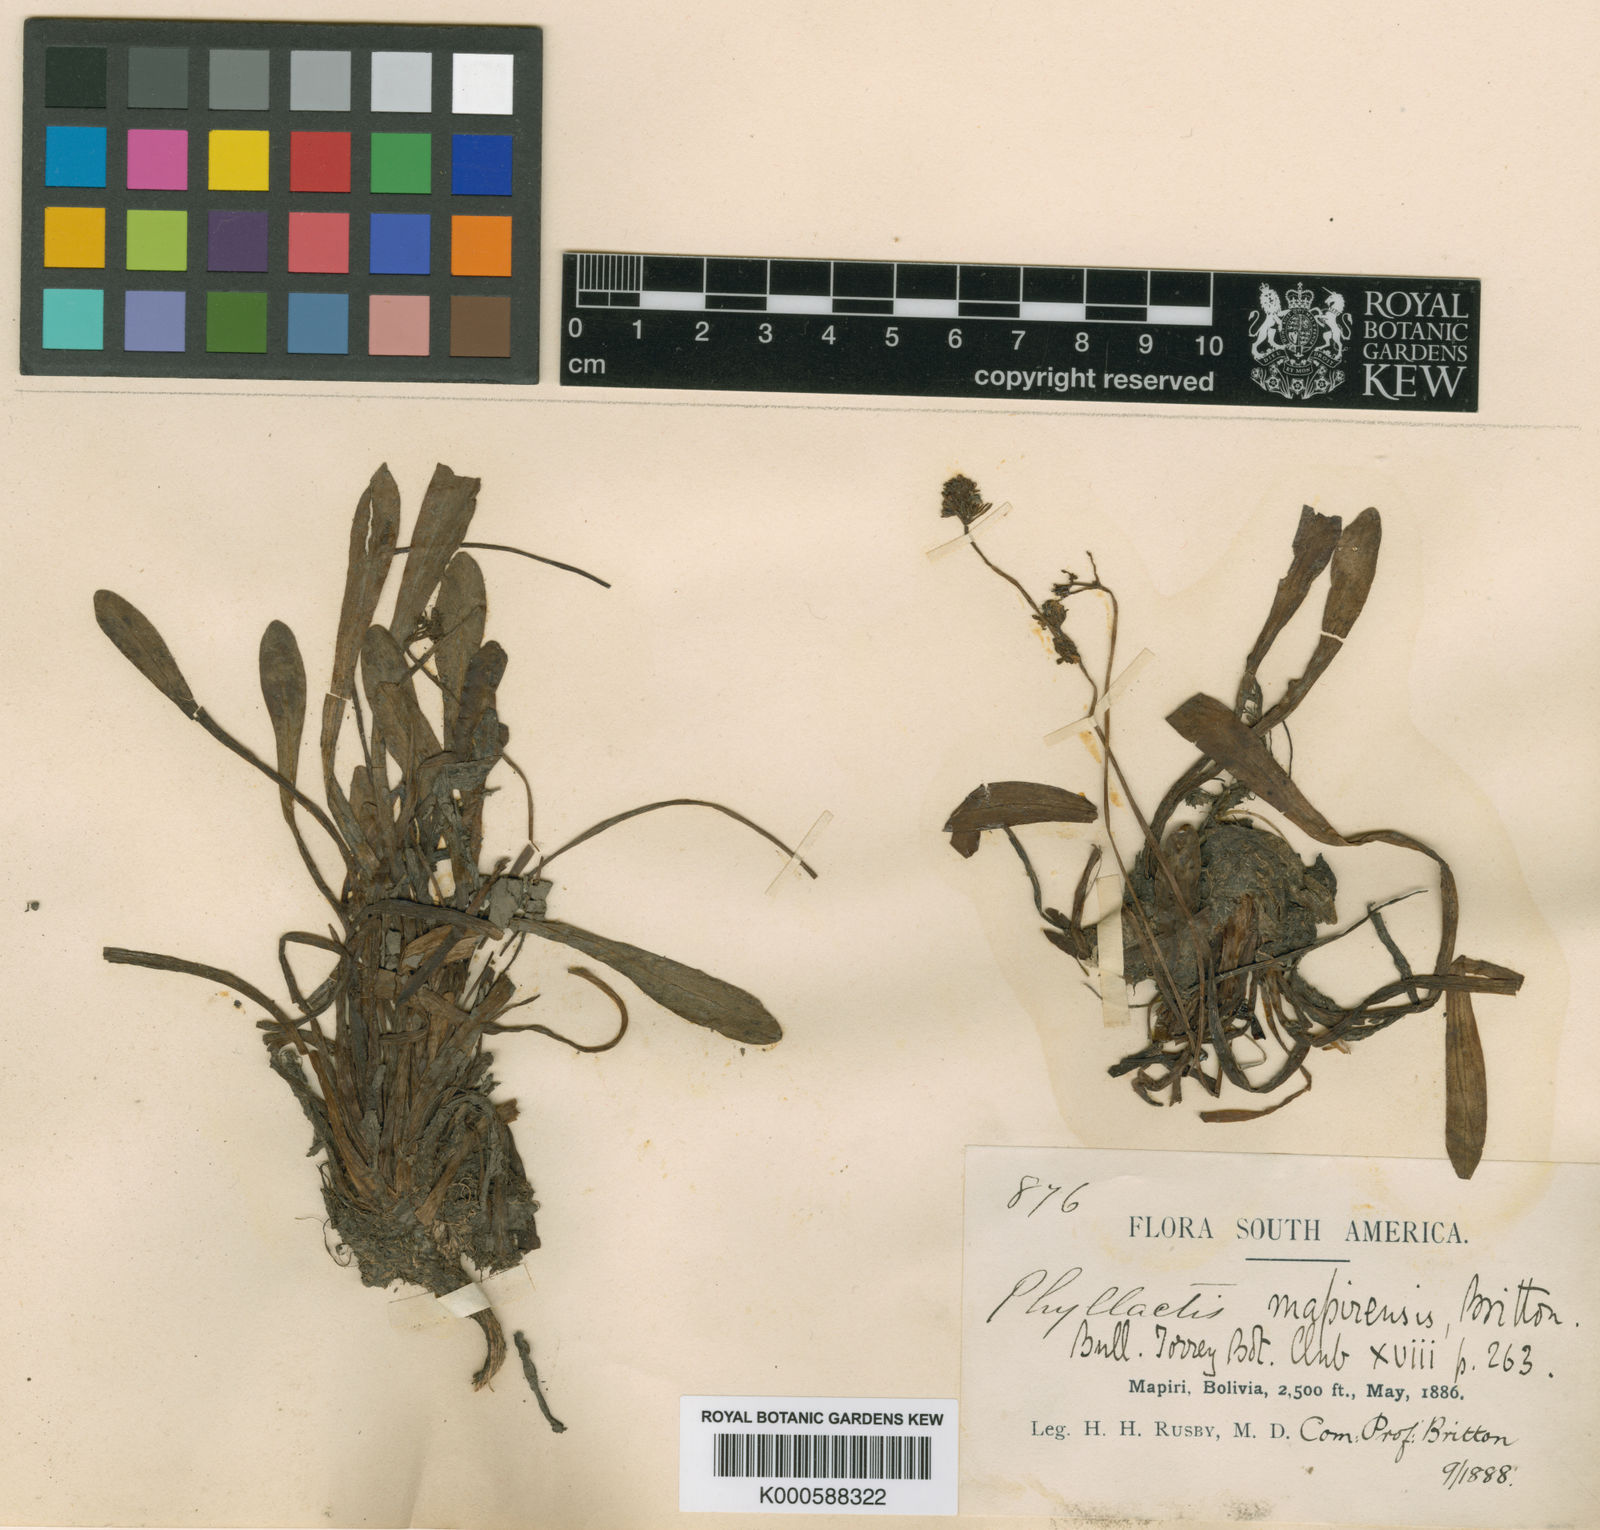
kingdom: Plantae
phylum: Tracheophyta
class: Magnoliopsida
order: Dipsacales
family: Caprifoliaceae
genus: Valeriana
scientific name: Valeriana mapirensis
